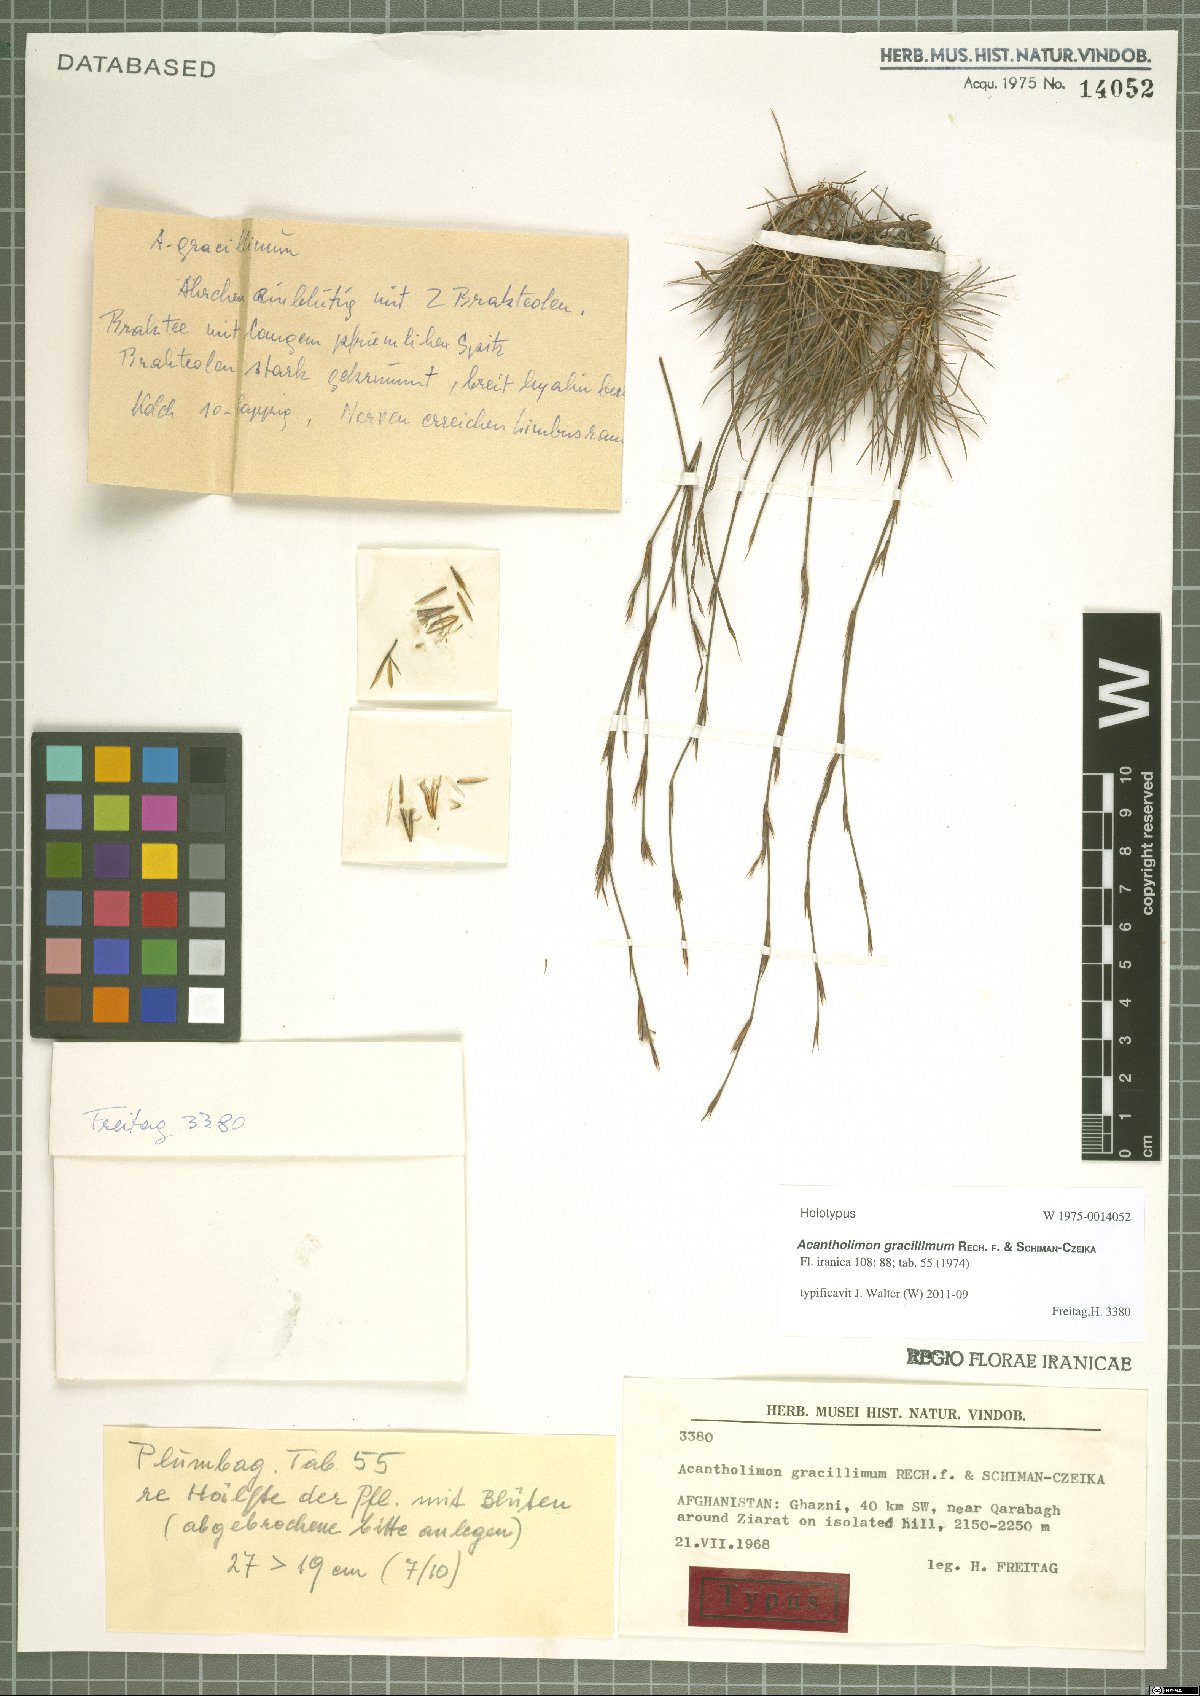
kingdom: Plantae
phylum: Tracheophyta
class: Magnoliopsida
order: Caryophyllales
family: Plumbaginaceae
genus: Acantholimon
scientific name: Acantholimon gracillimum
